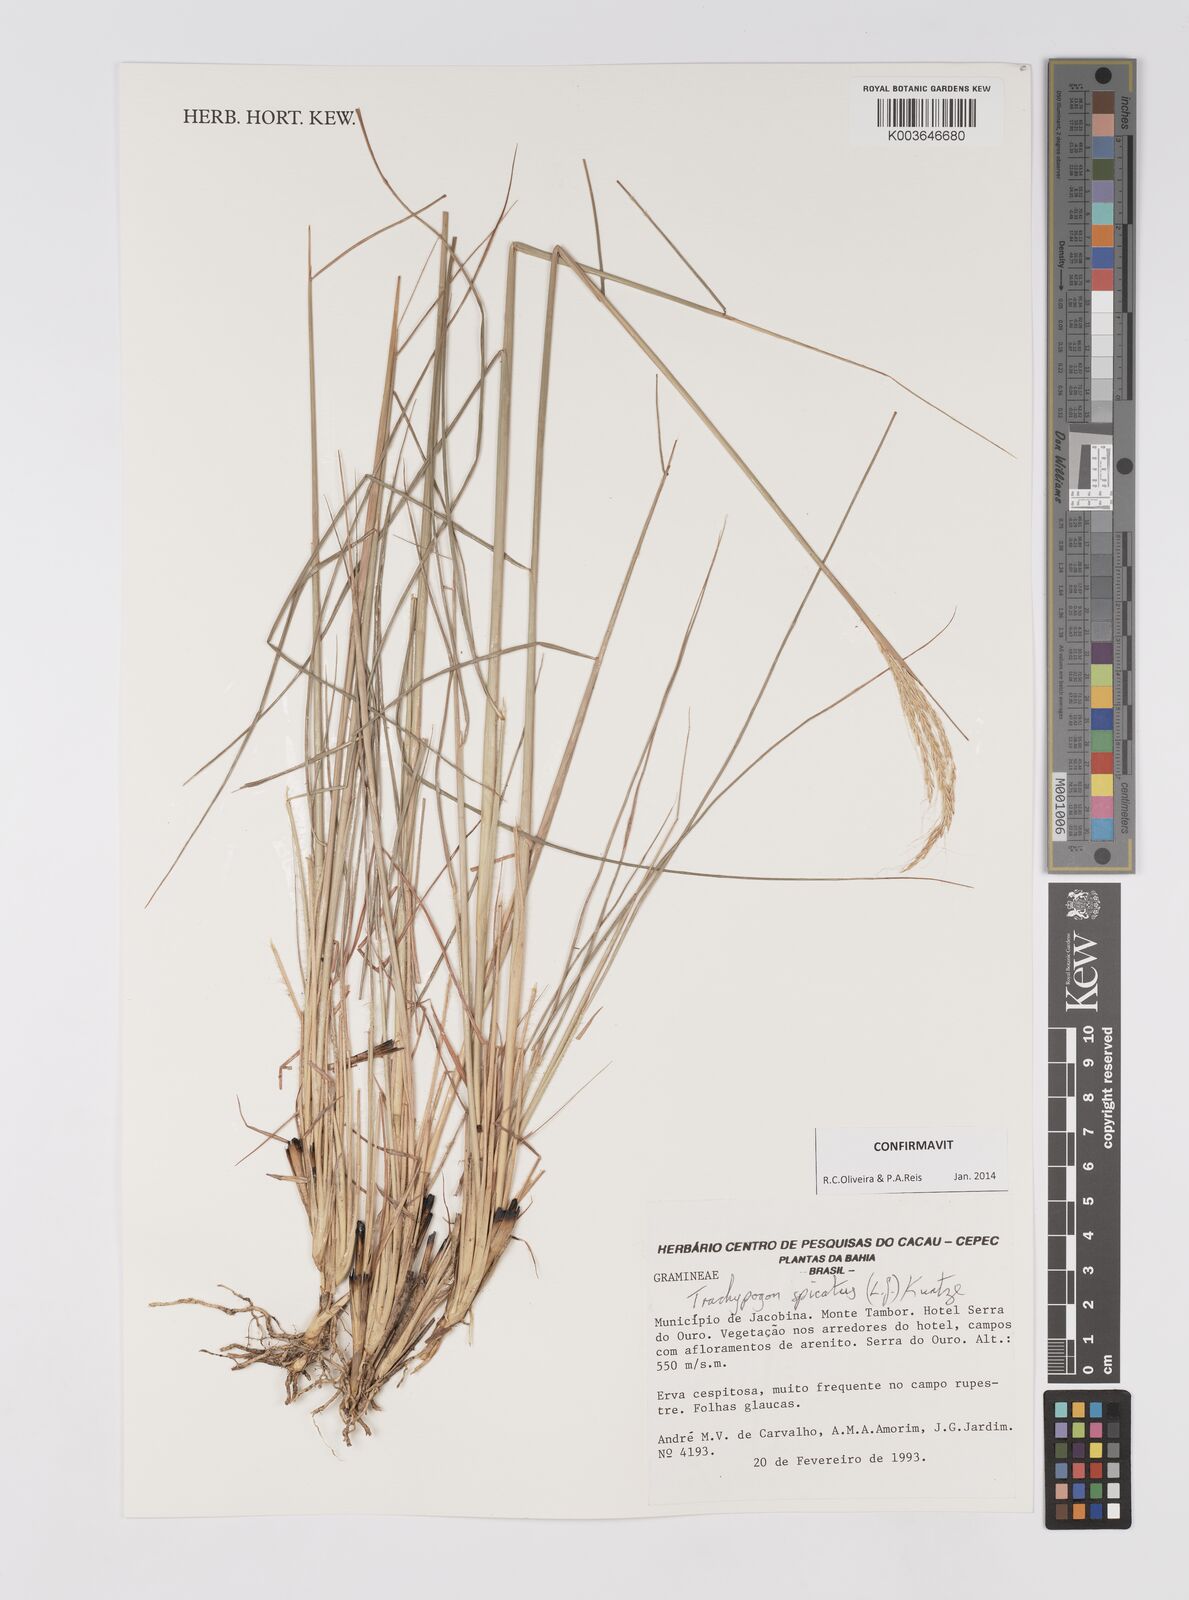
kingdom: Plantae
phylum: Tracheophyta
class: Liliopsida
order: Poales
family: Poaceae
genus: Trachypogon
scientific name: Trachypogon spicatus
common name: Crinkle-awn
